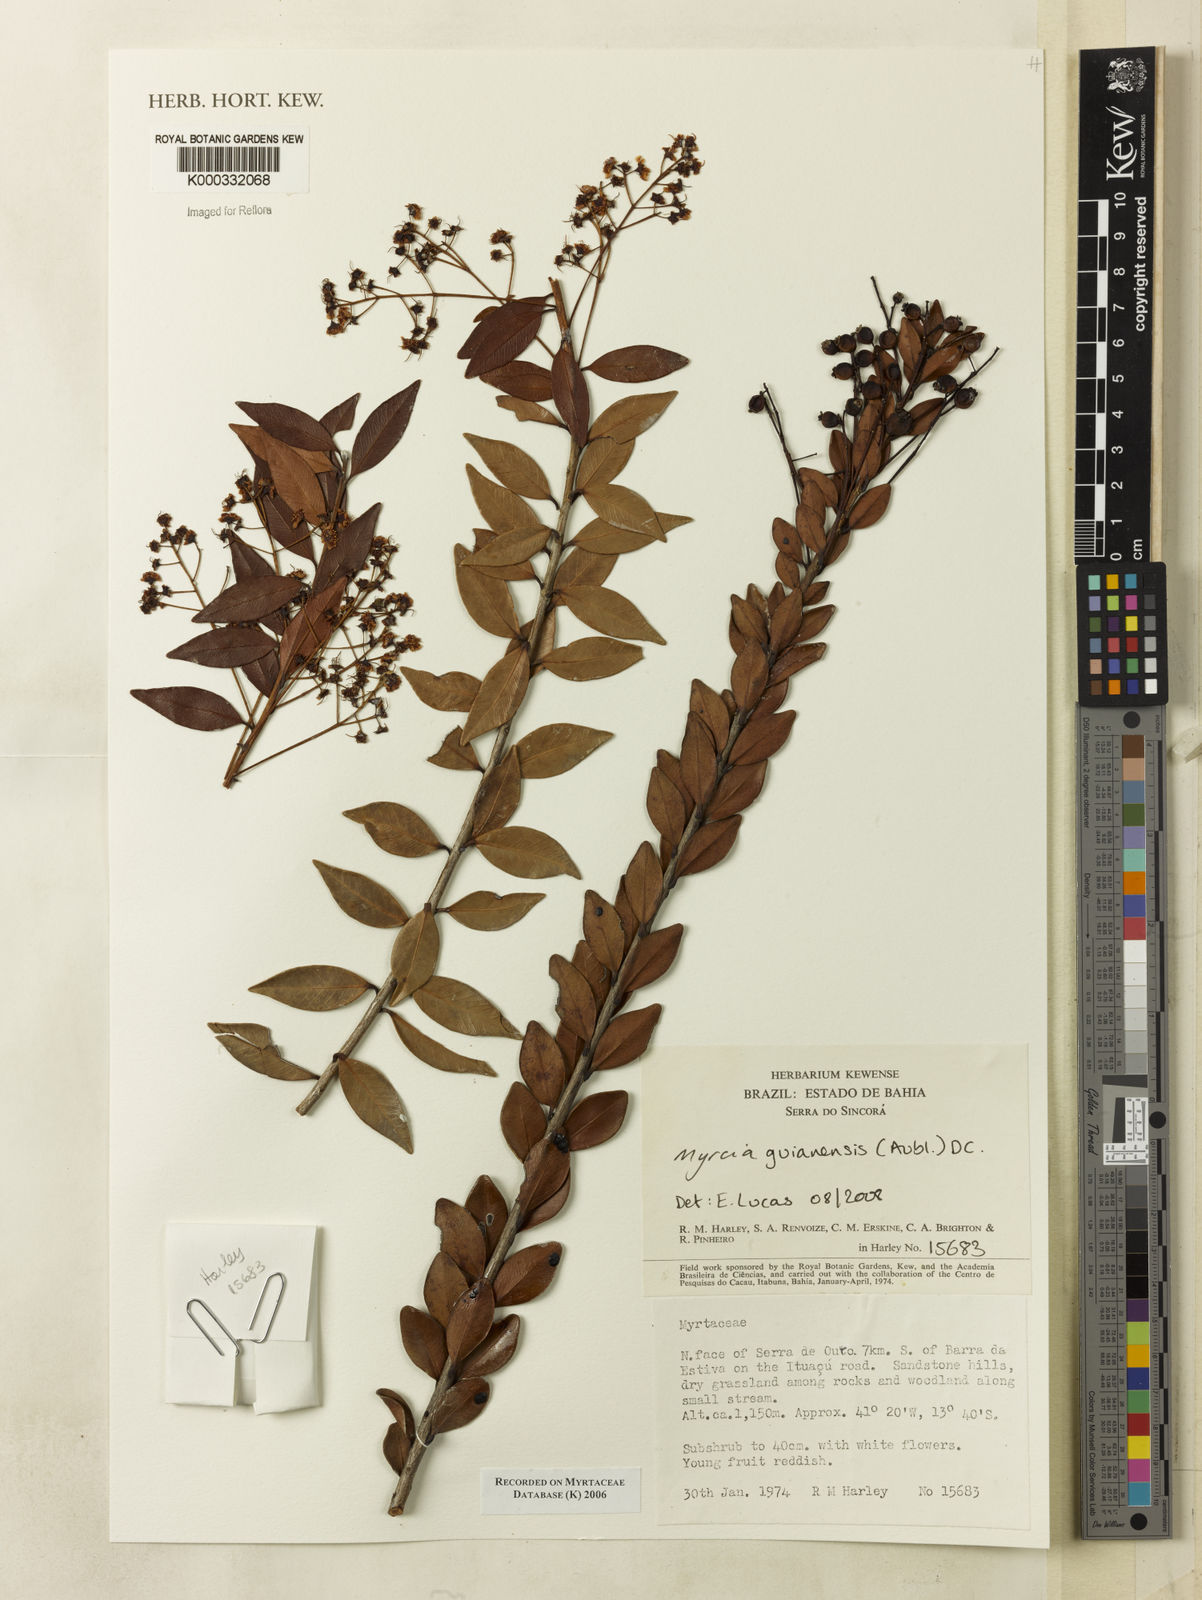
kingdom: Plantae
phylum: Tracheophyta
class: Magnoliopsida
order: Myrtales
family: Myrtaceae
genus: Myrcia
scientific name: Myrcia
